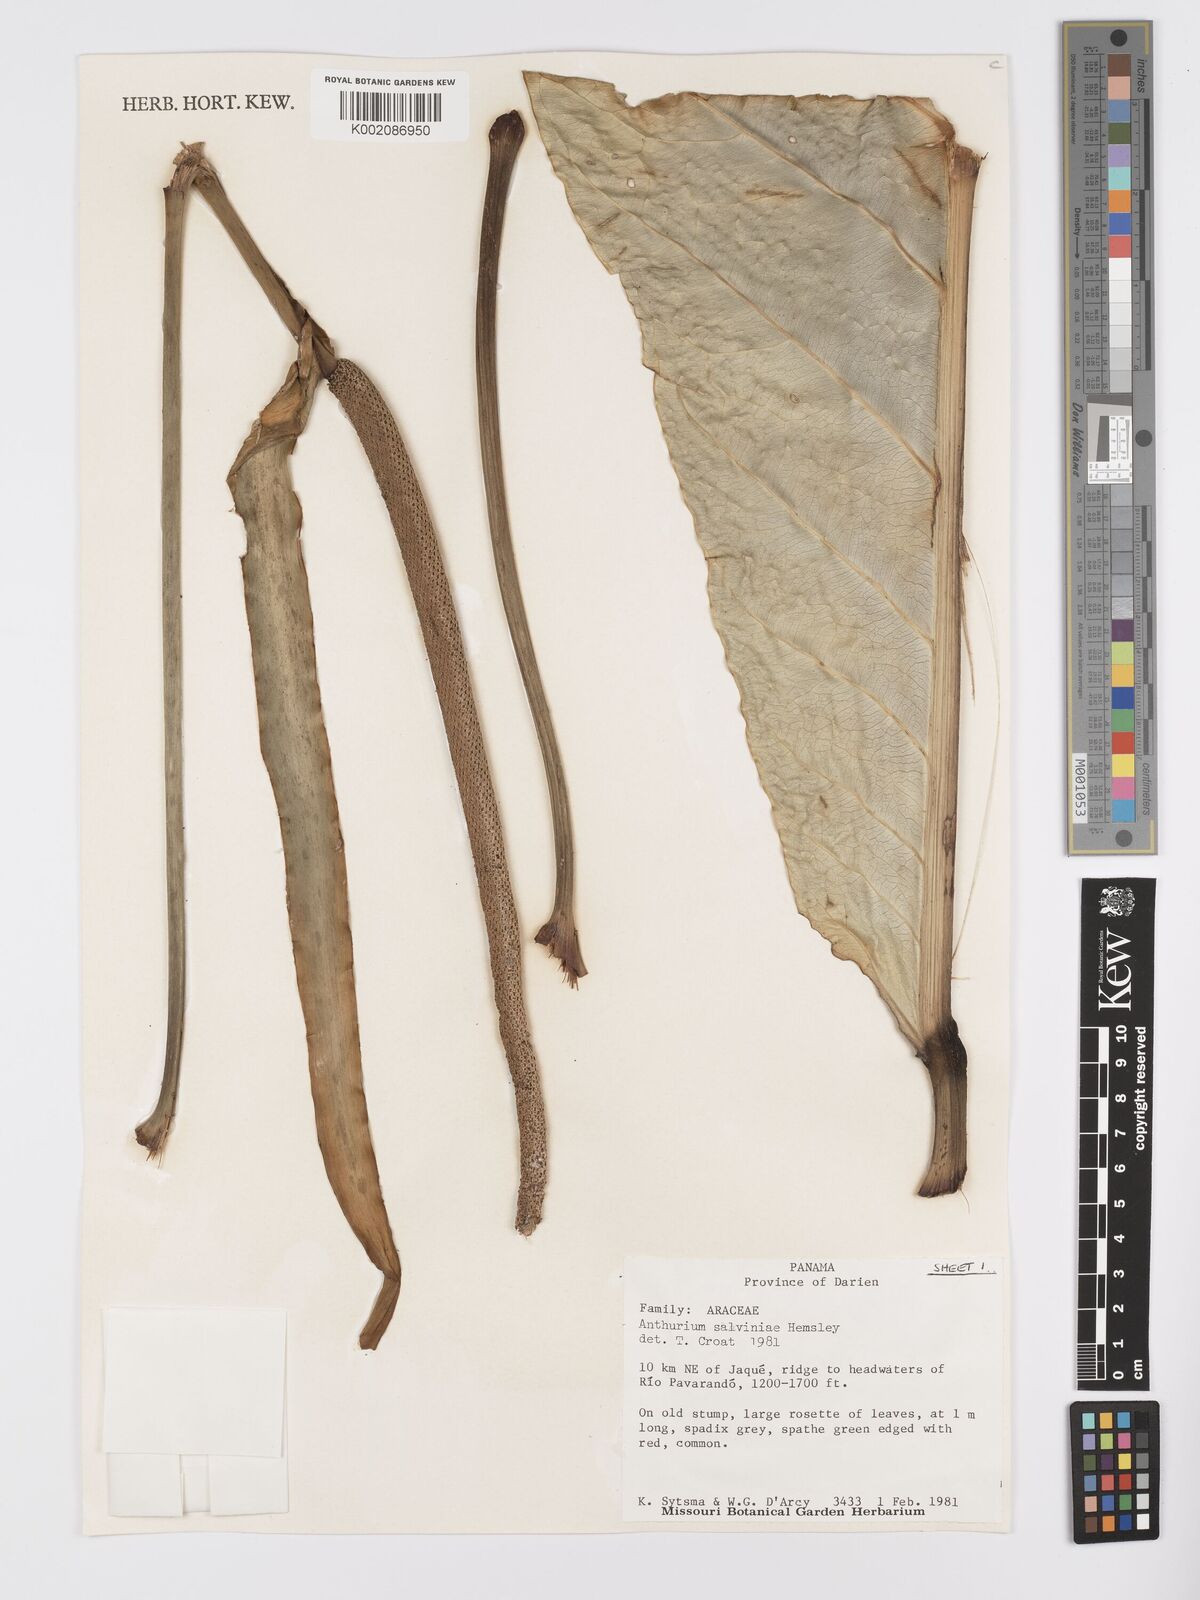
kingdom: Plantae
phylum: Tracheophyta
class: Liliopsida
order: Alismatales
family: Araceae
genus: Anthurium
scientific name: Anthurium salvinii
